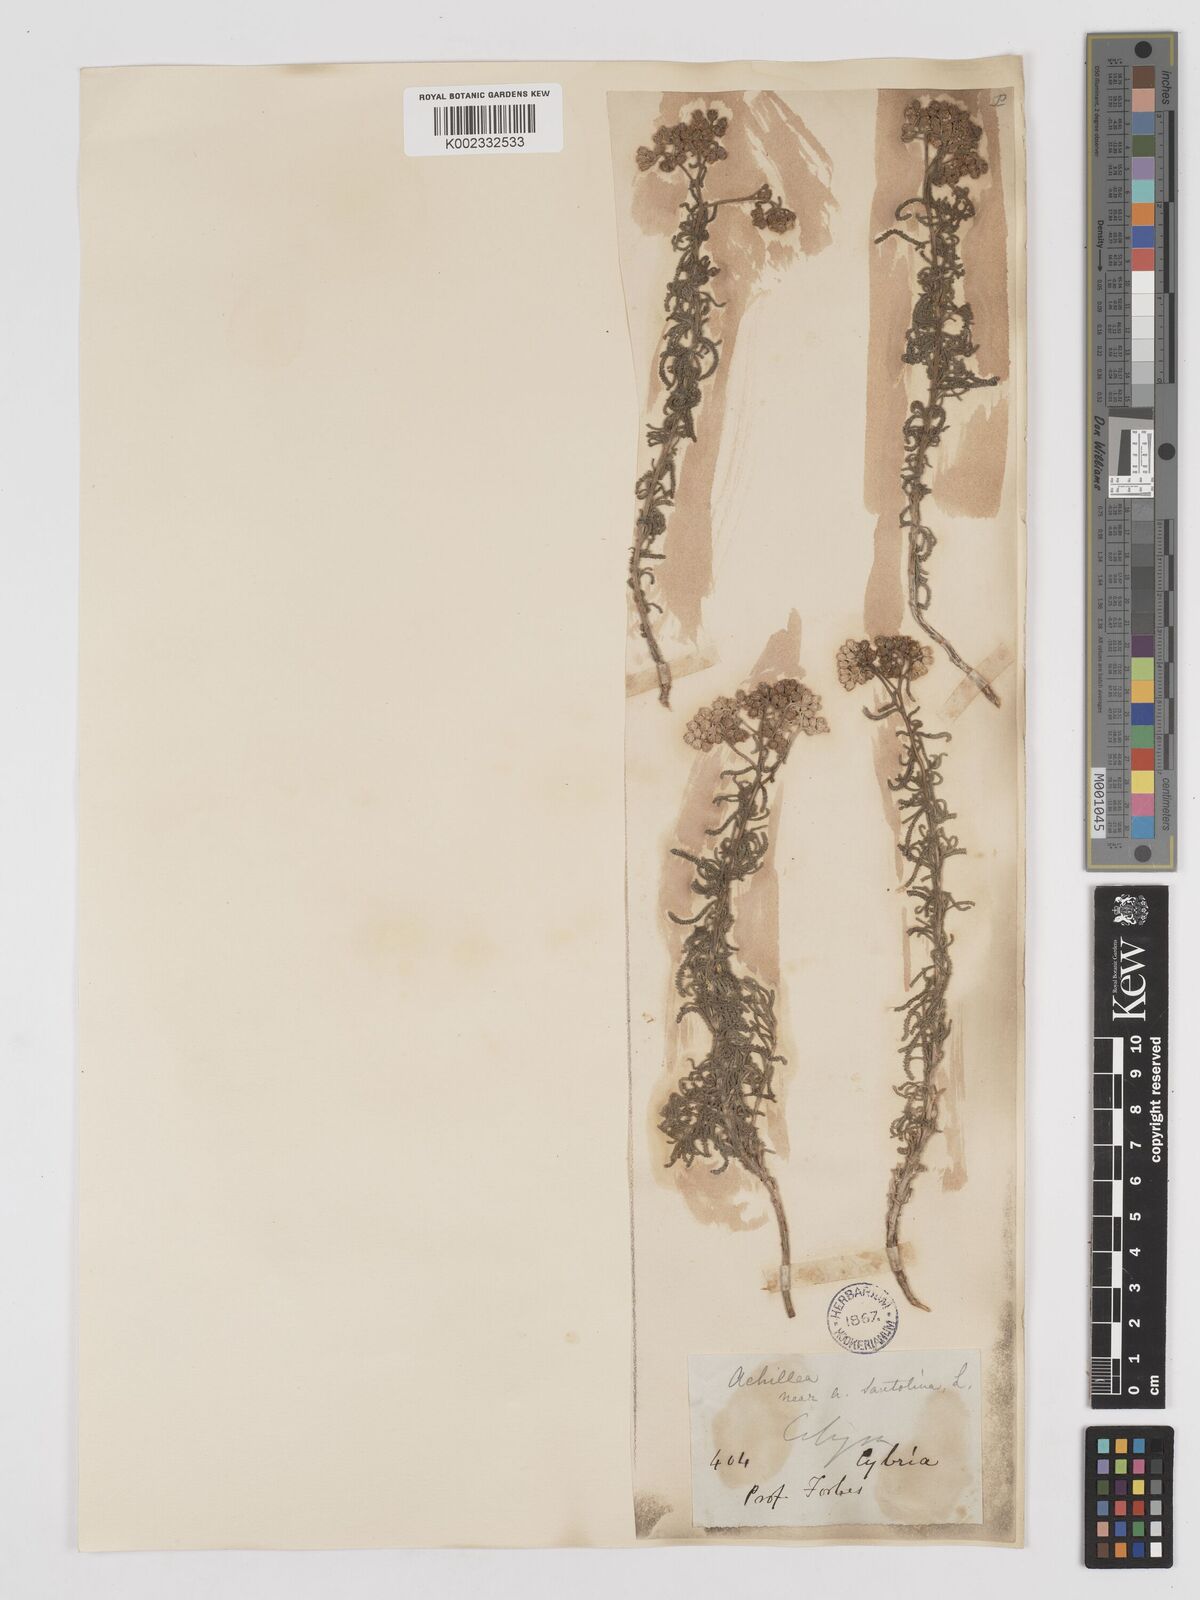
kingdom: Plantae
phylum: Tracheophyta
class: Magnoliopsida
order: Asterales
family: Asteraceae
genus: Achillea
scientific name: Achillea tenuifolia
